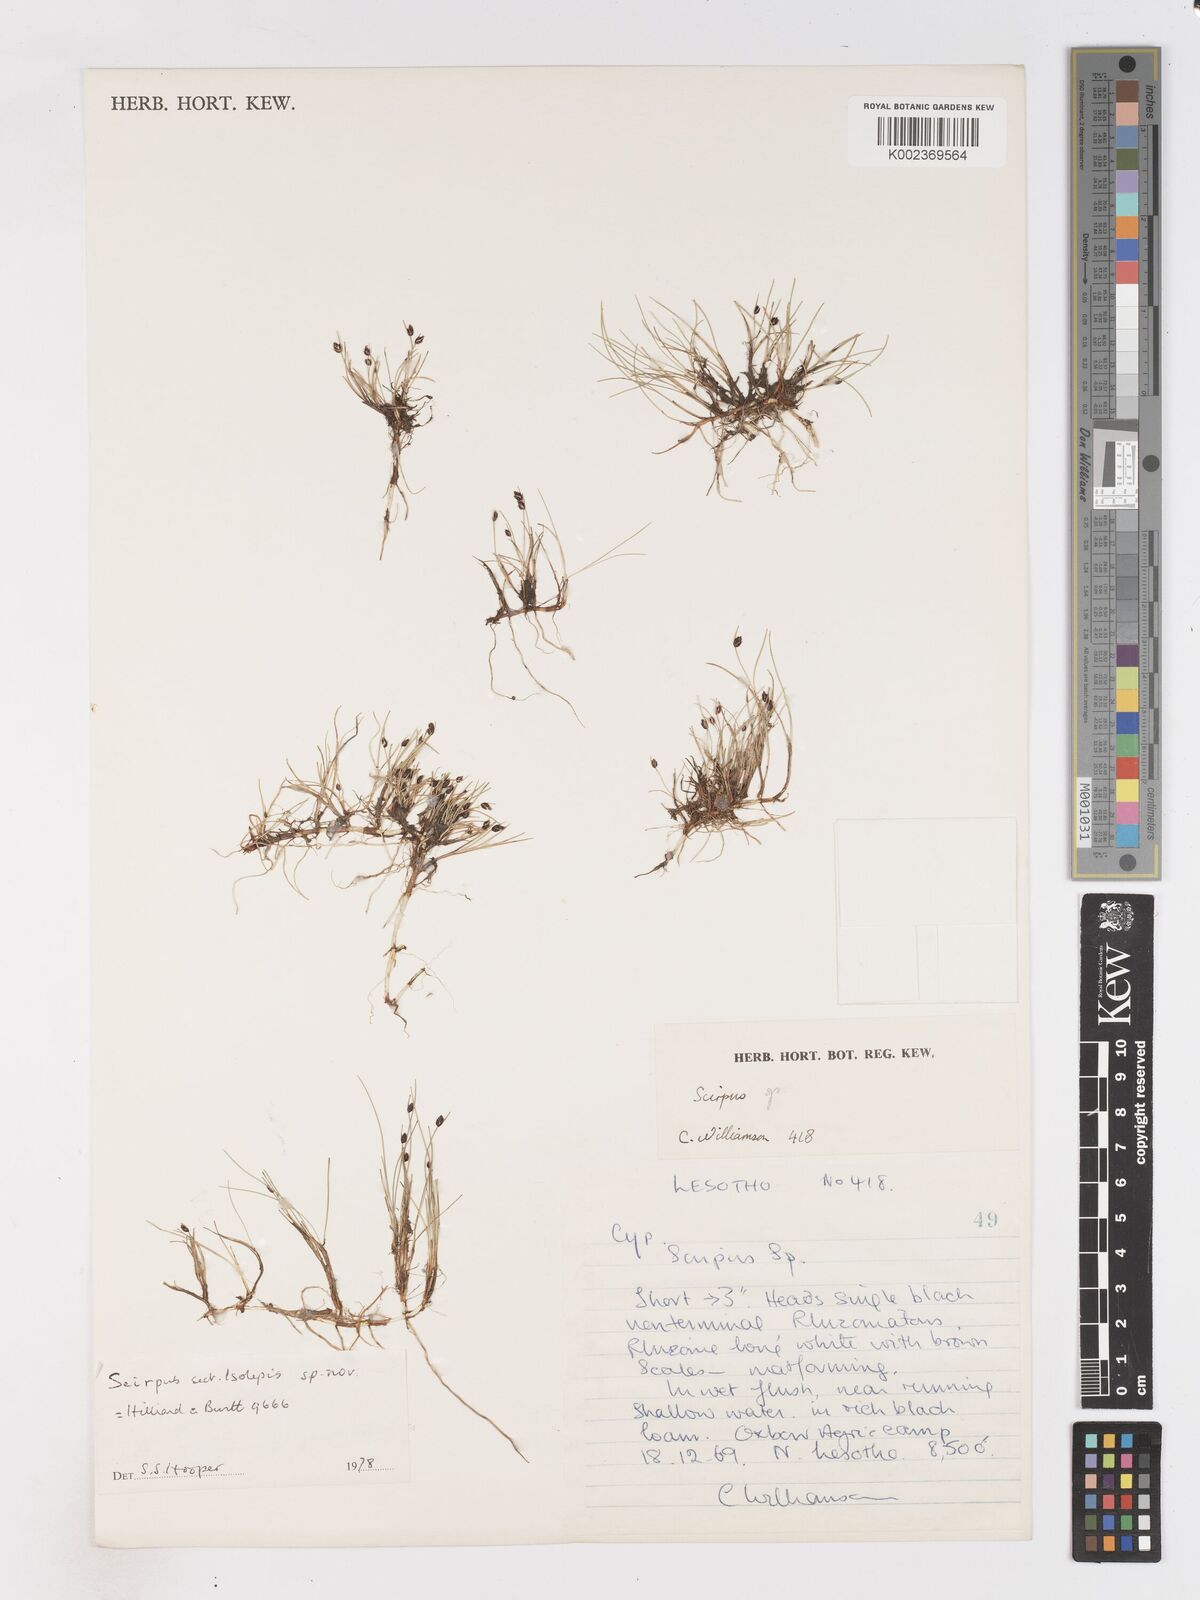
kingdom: Plantae
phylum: Tracheophyta
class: Liliopsida
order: Poales
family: Cyperaceae
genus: Isolepis
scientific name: Isolepis
